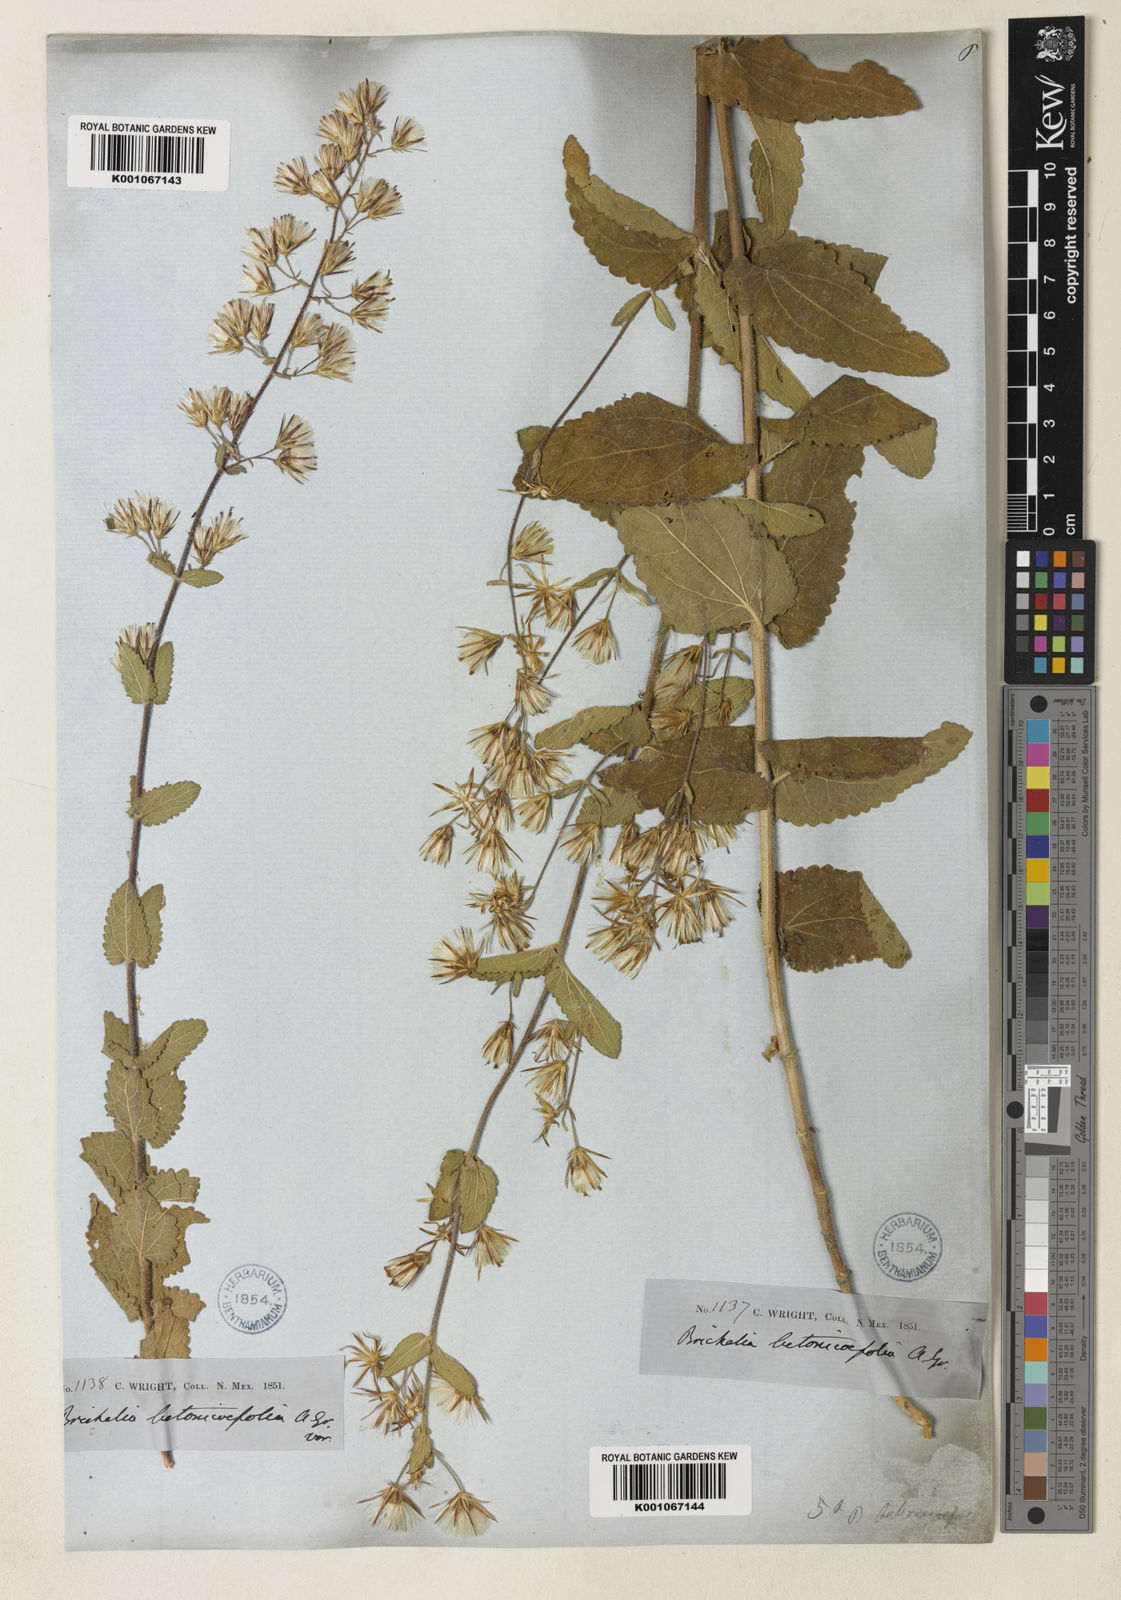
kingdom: Plantae
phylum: Tracheophyta
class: Magnoliopsida
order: Asterales
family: Asteraceae
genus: Brickellia
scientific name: Brickellia betonicifolia
